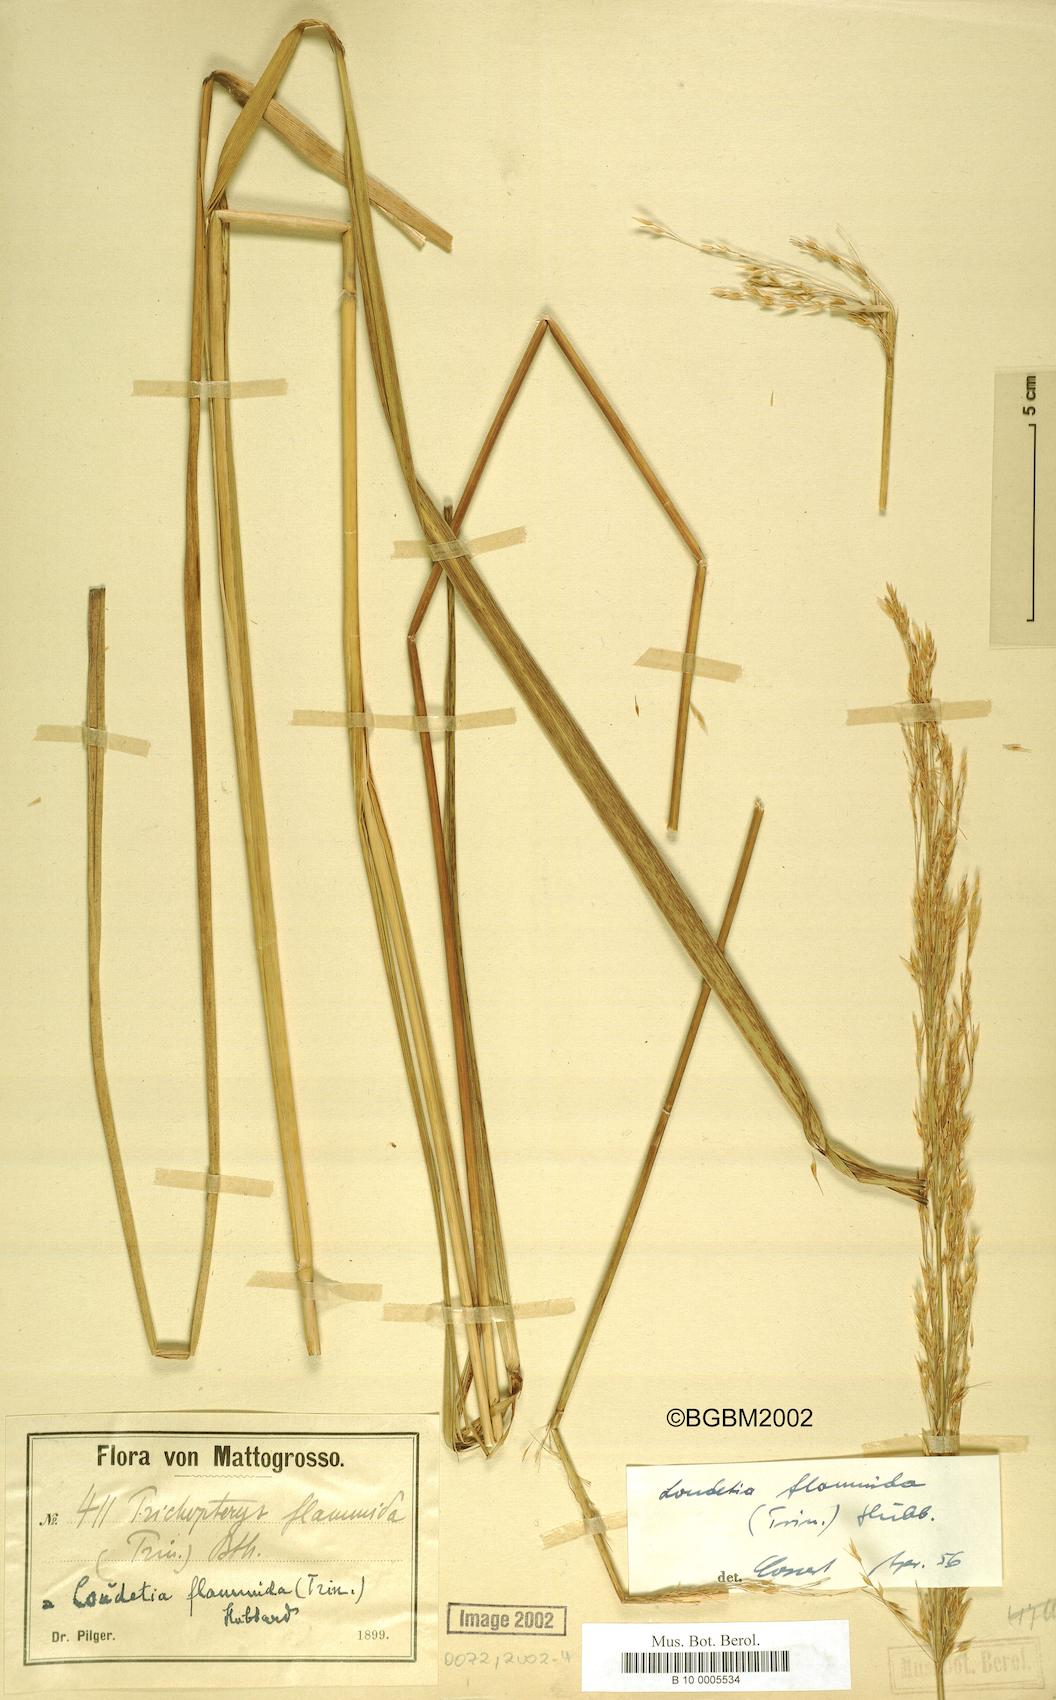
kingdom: Plantae
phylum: Tracheophyta
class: Liliopsida
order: Poales
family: Poaceae
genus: Loudetia
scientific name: Loudetia flammida
